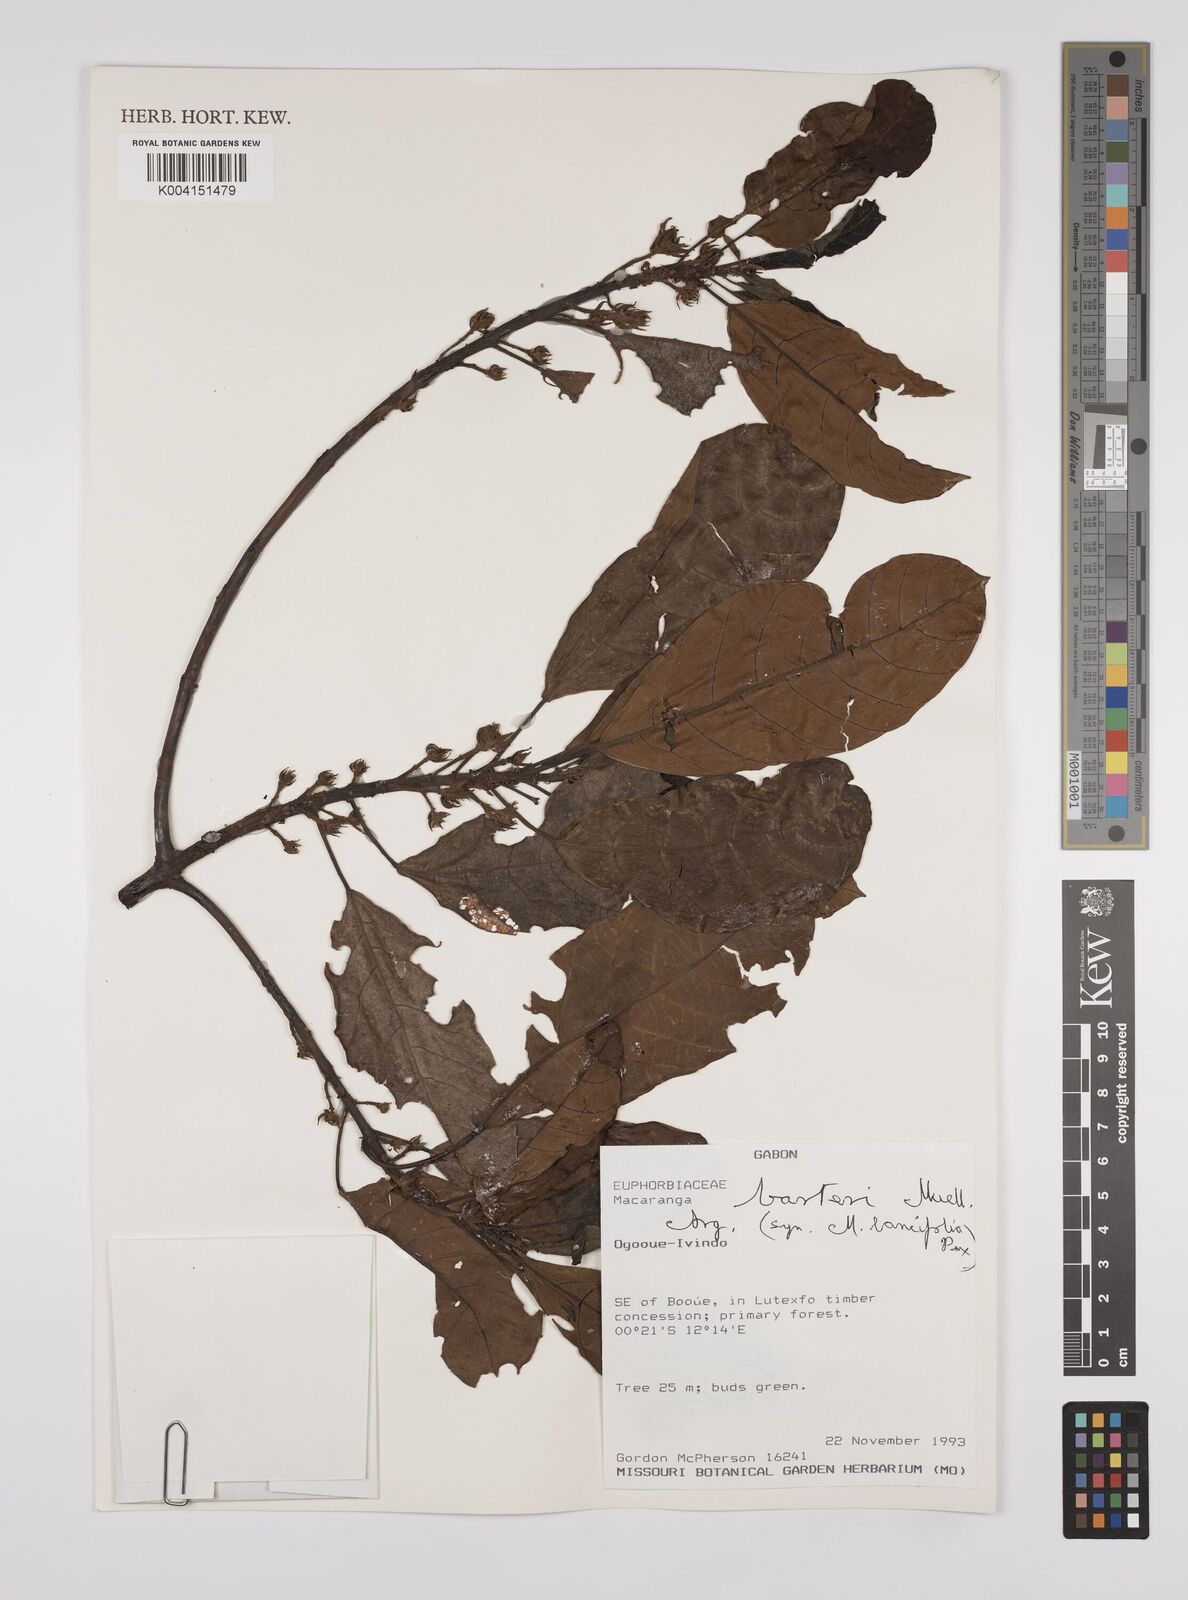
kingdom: Plantae
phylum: Tracheophyta
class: Magnoliopsida
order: Malpighiales
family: Euphorbiaceae
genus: Macaranga
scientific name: Macaranga barteri
